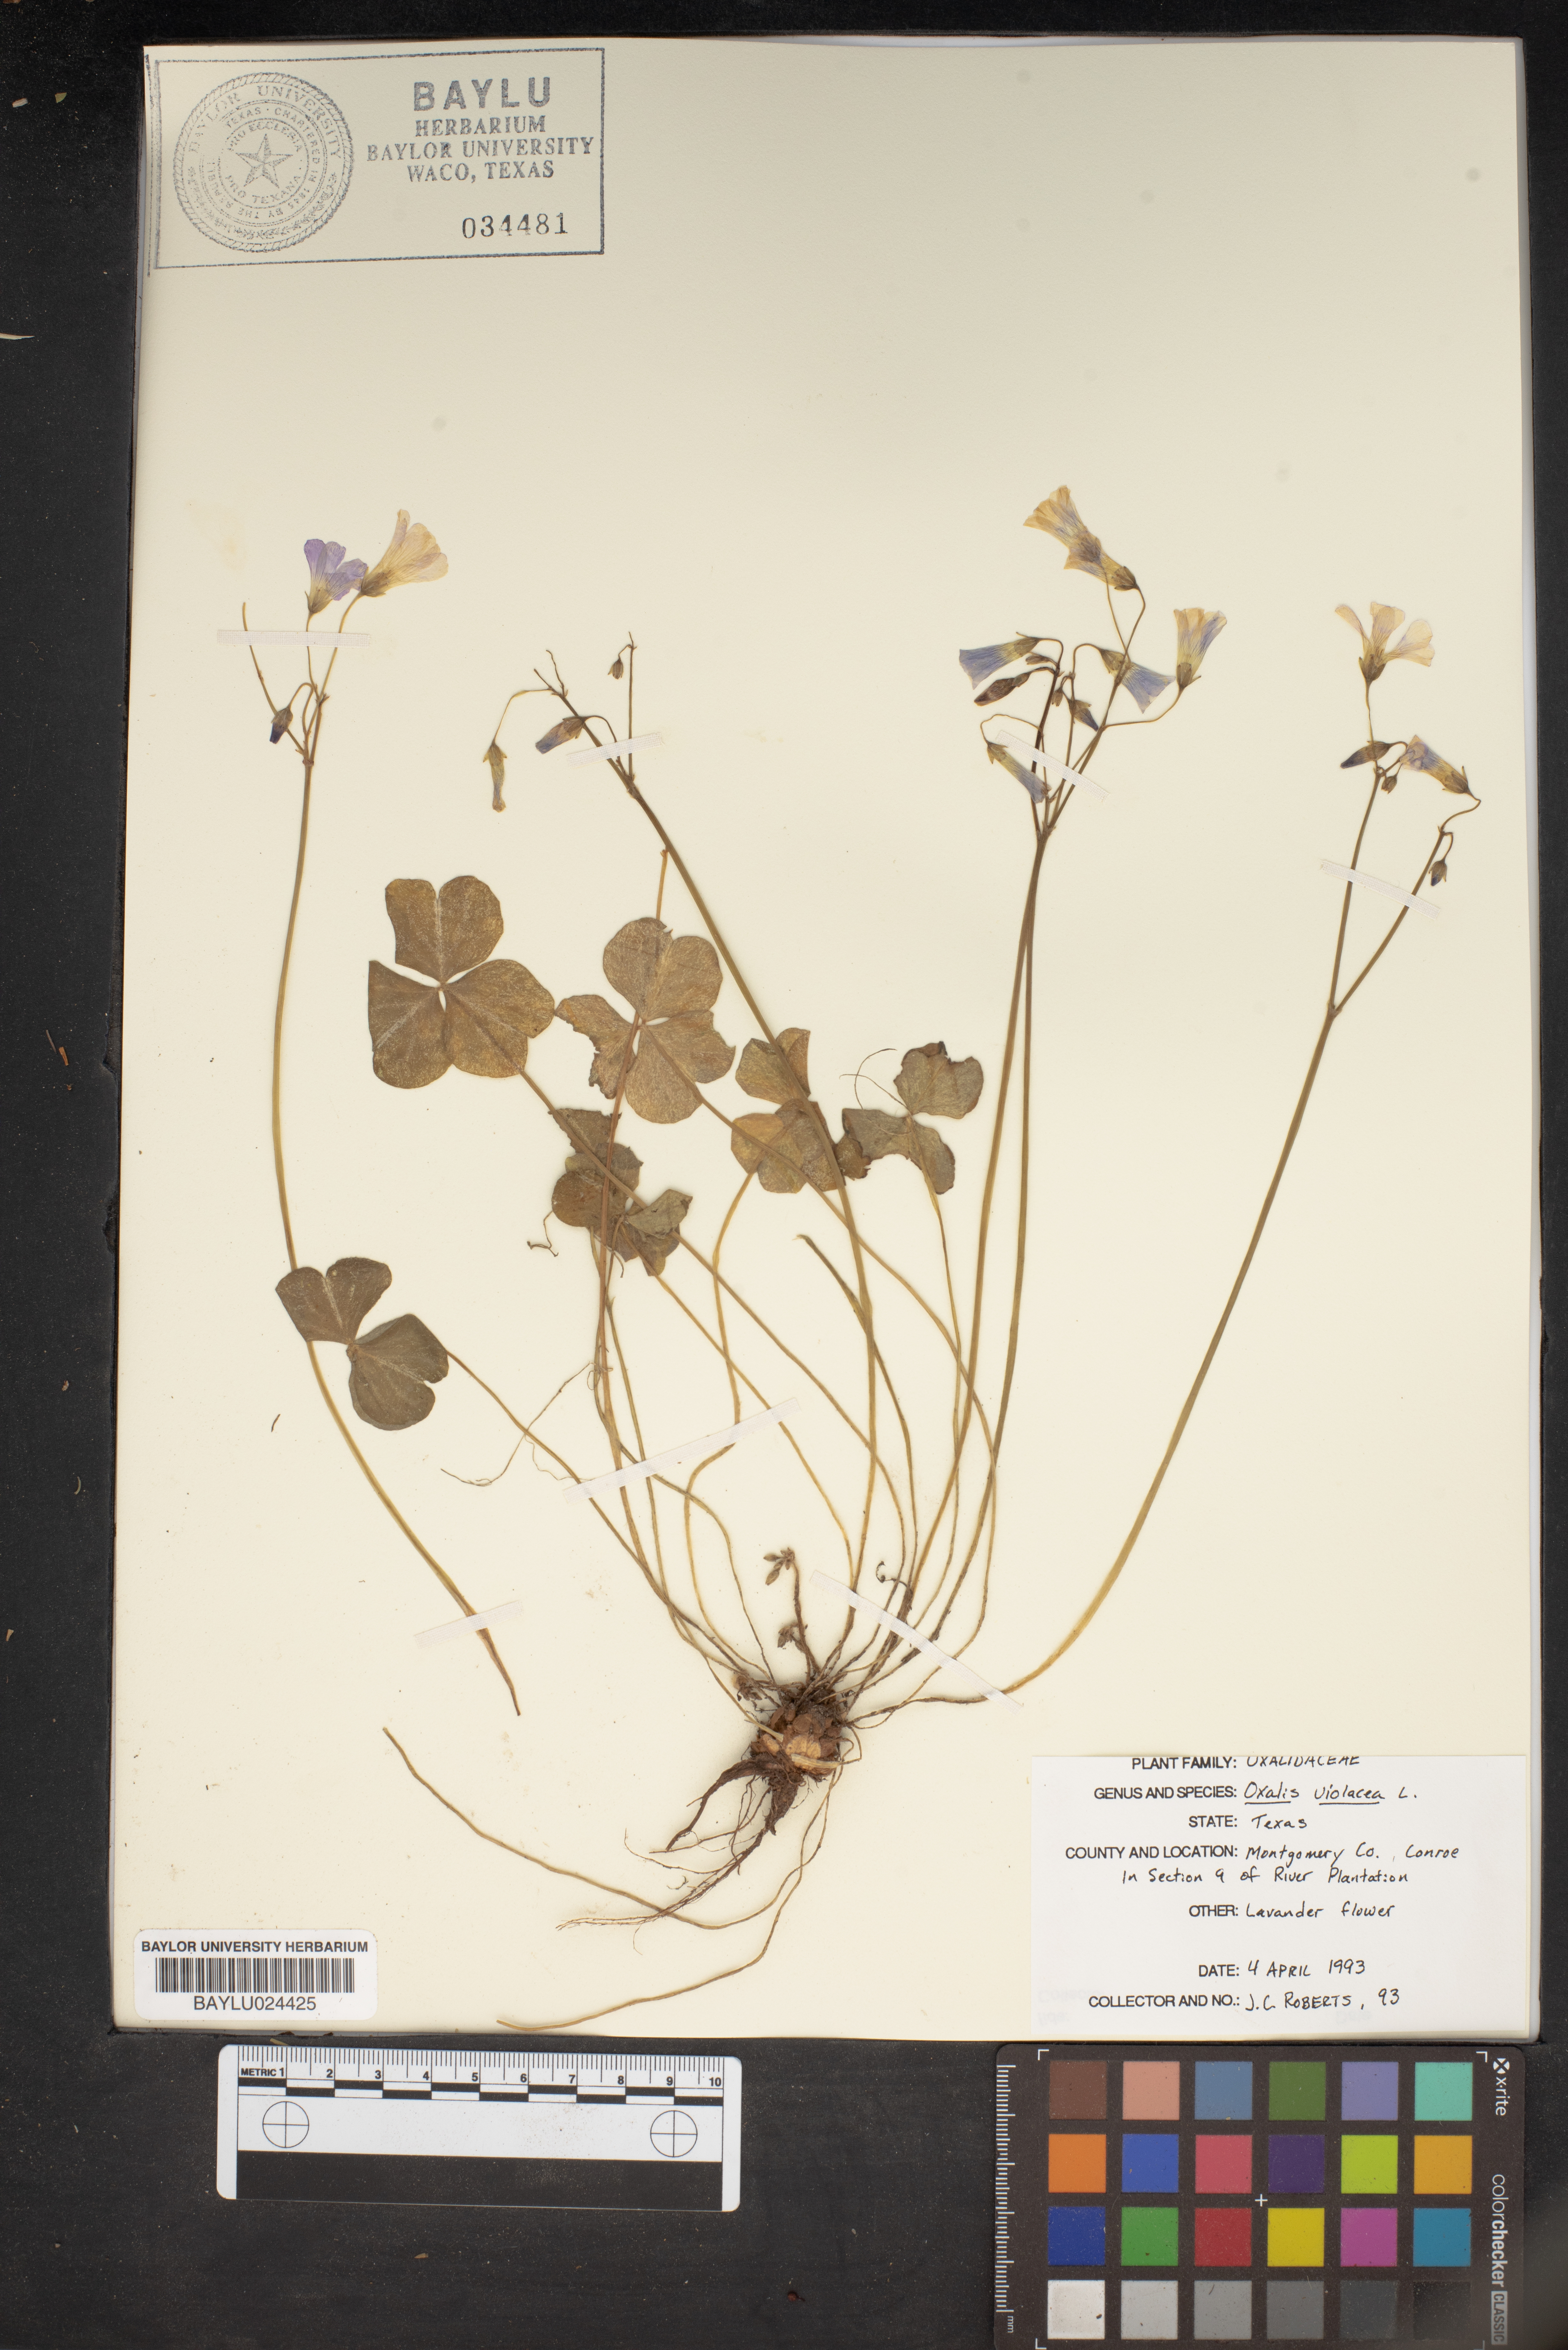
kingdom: Plantae
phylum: Tracheophyta
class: Magnoliopsida
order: Oxalidales
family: Oxalidaceae
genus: Oxalis
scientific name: Oxalis violacea
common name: Violet wood-sorrel
